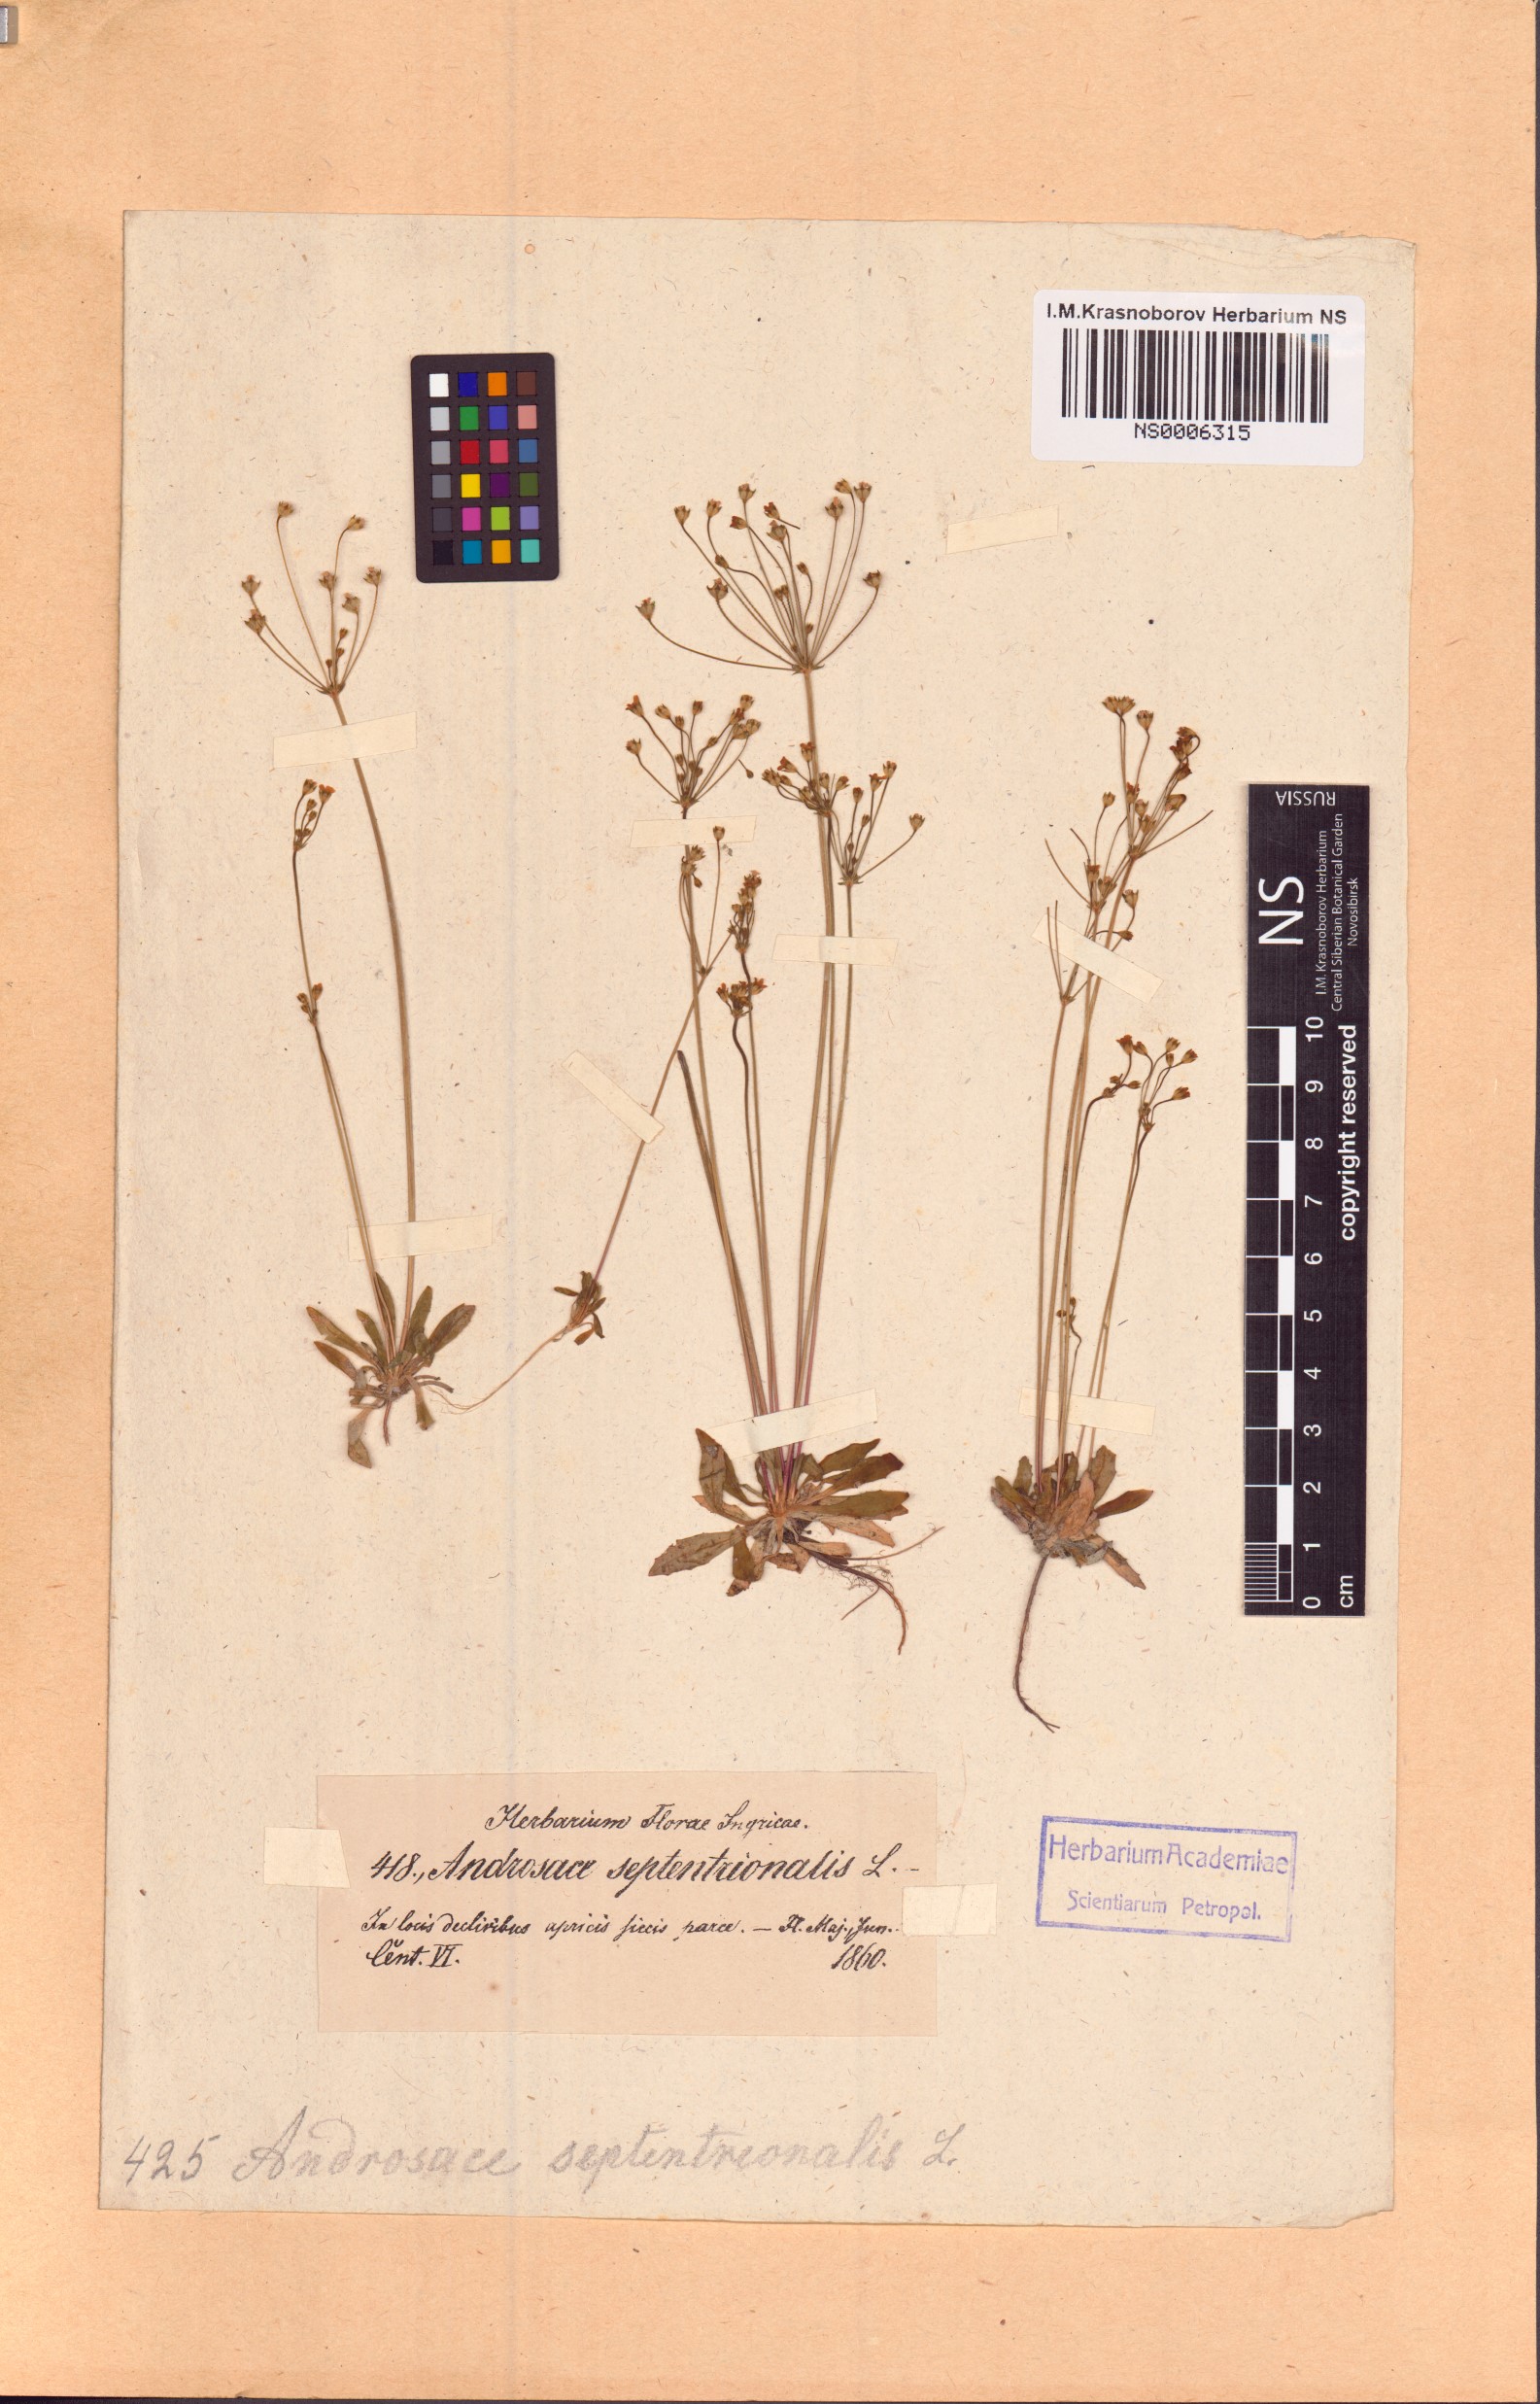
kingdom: Plantae
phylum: Tracheophyta
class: Magnoliopsida
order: Ericales
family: Primulaceae
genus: Androsace
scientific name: Androsace septentrionalis
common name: Hairy northern fairy-candelabra
